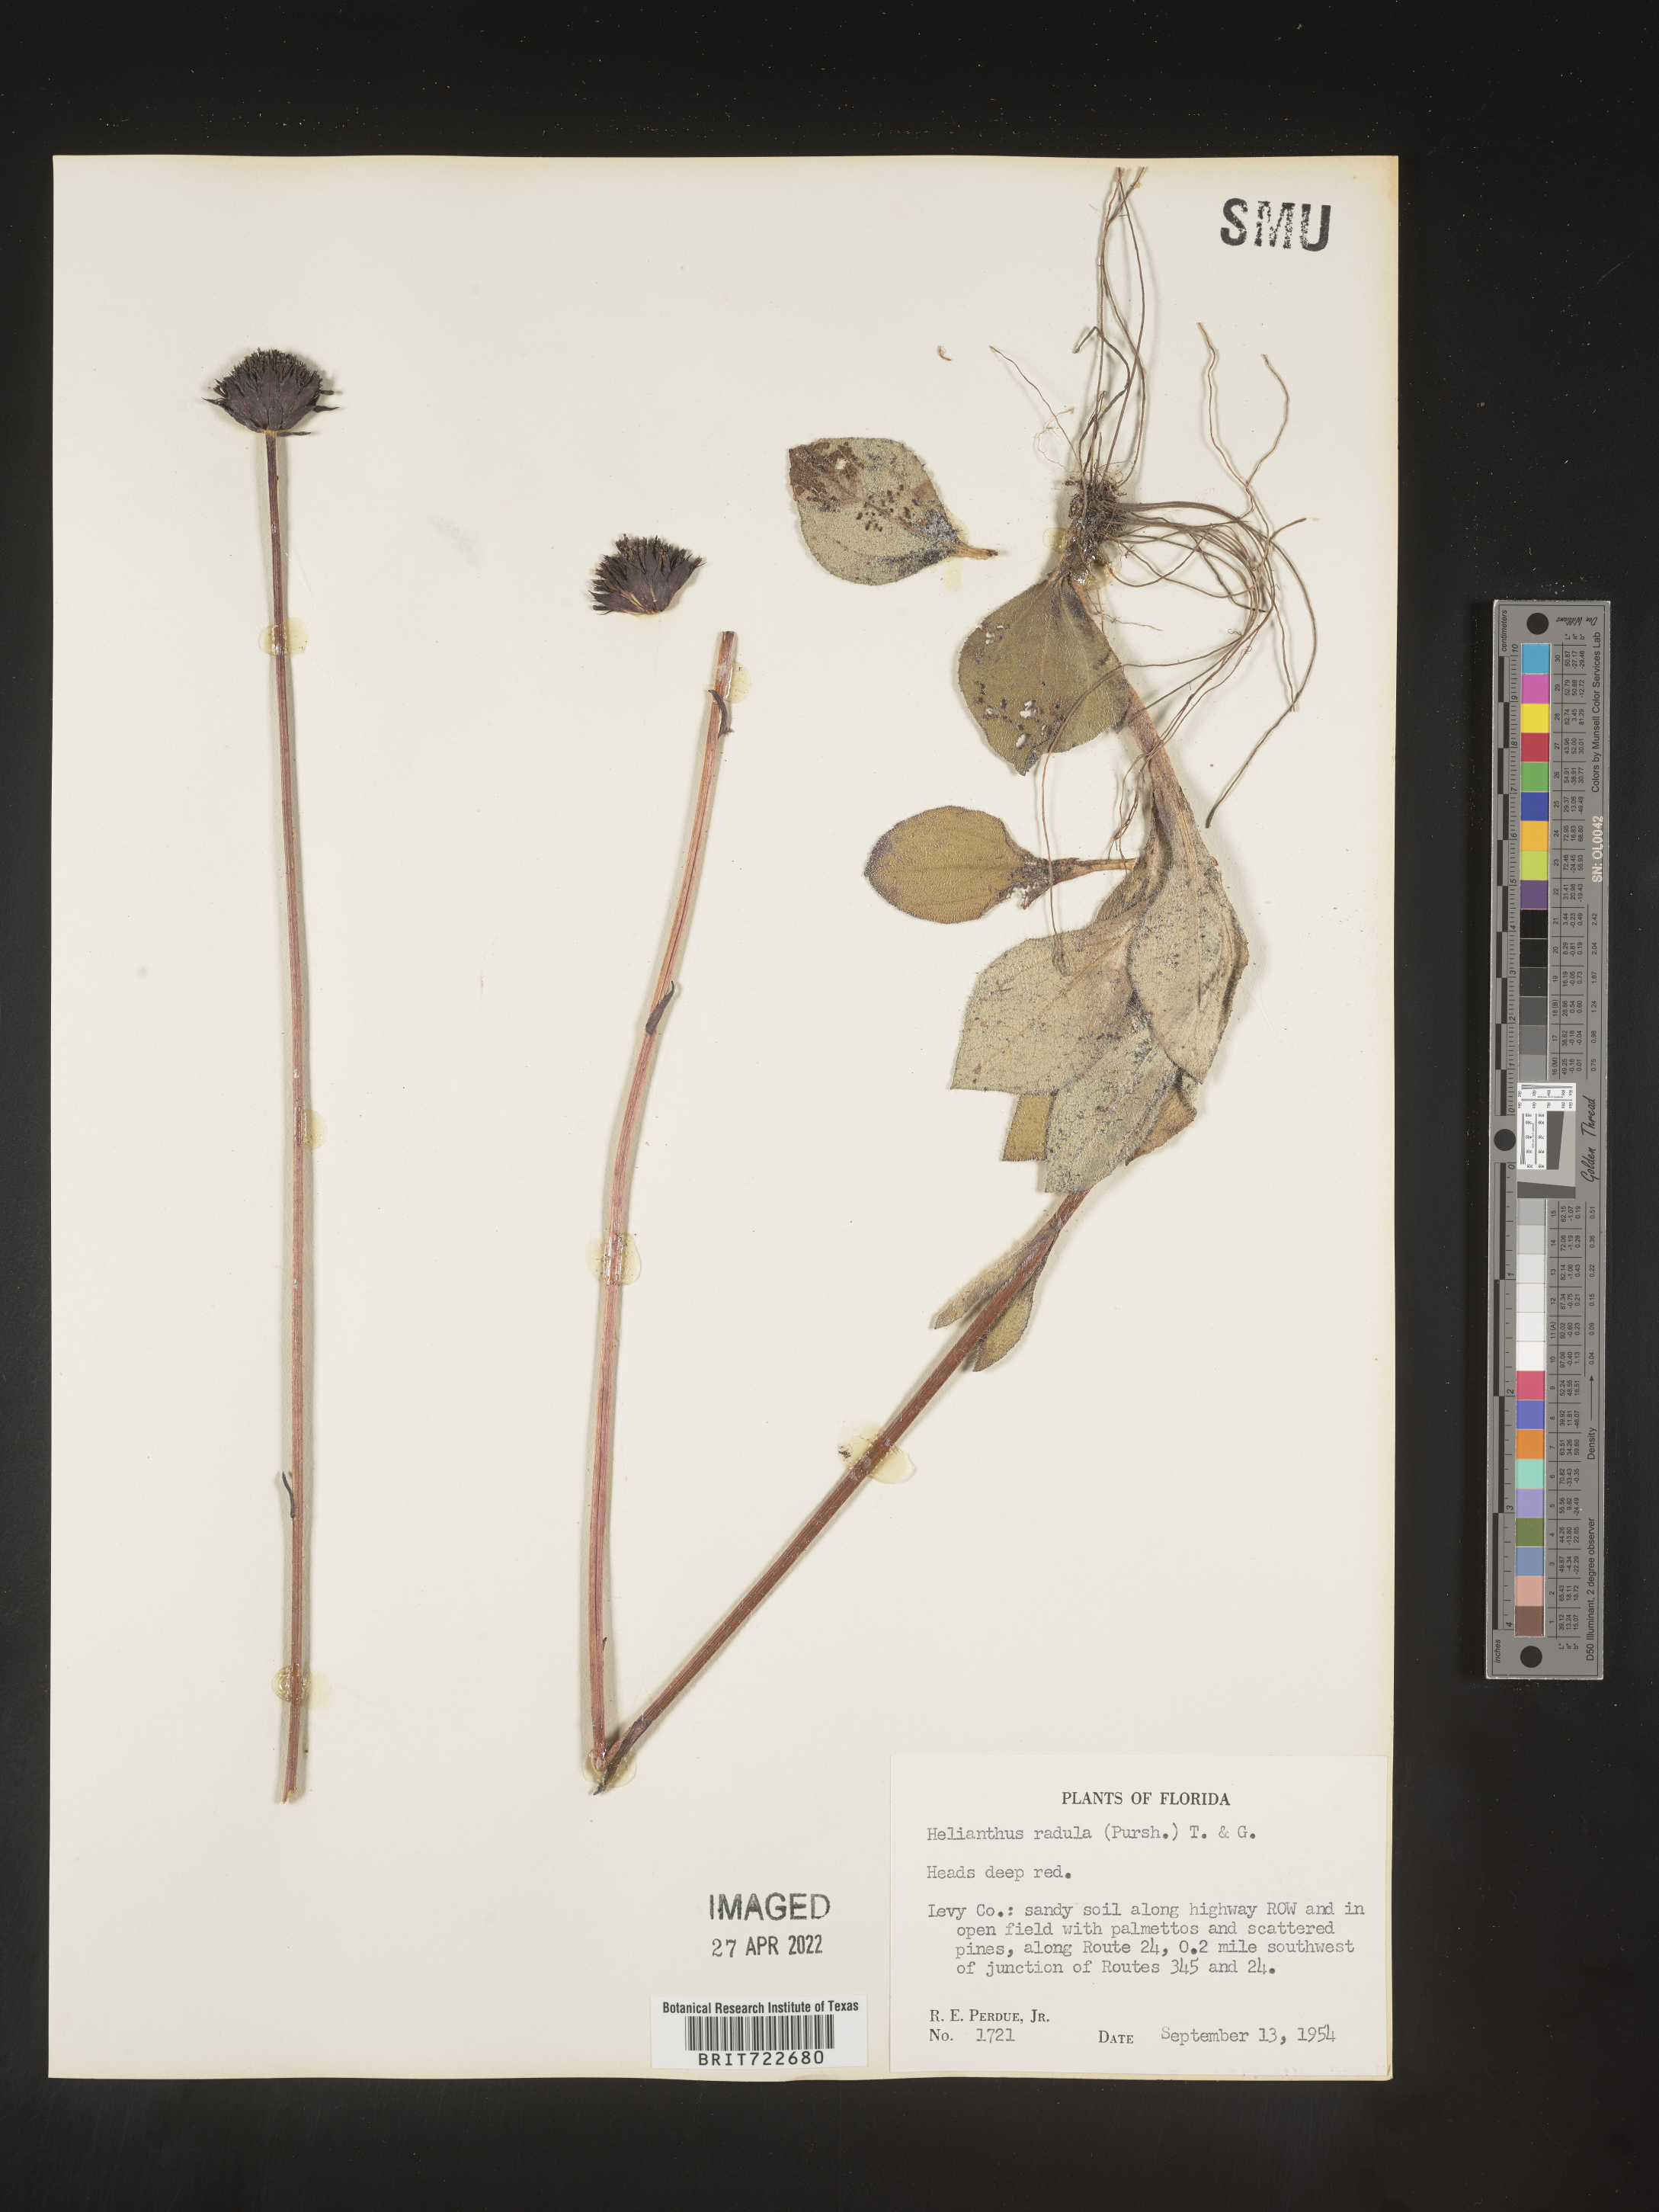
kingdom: Plantae
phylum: Tracheophyta
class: Magnoliopsida
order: Asterales
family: Asteraceae
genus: Helianthus
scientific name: Helianthus radula
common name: Pineland sunflower
